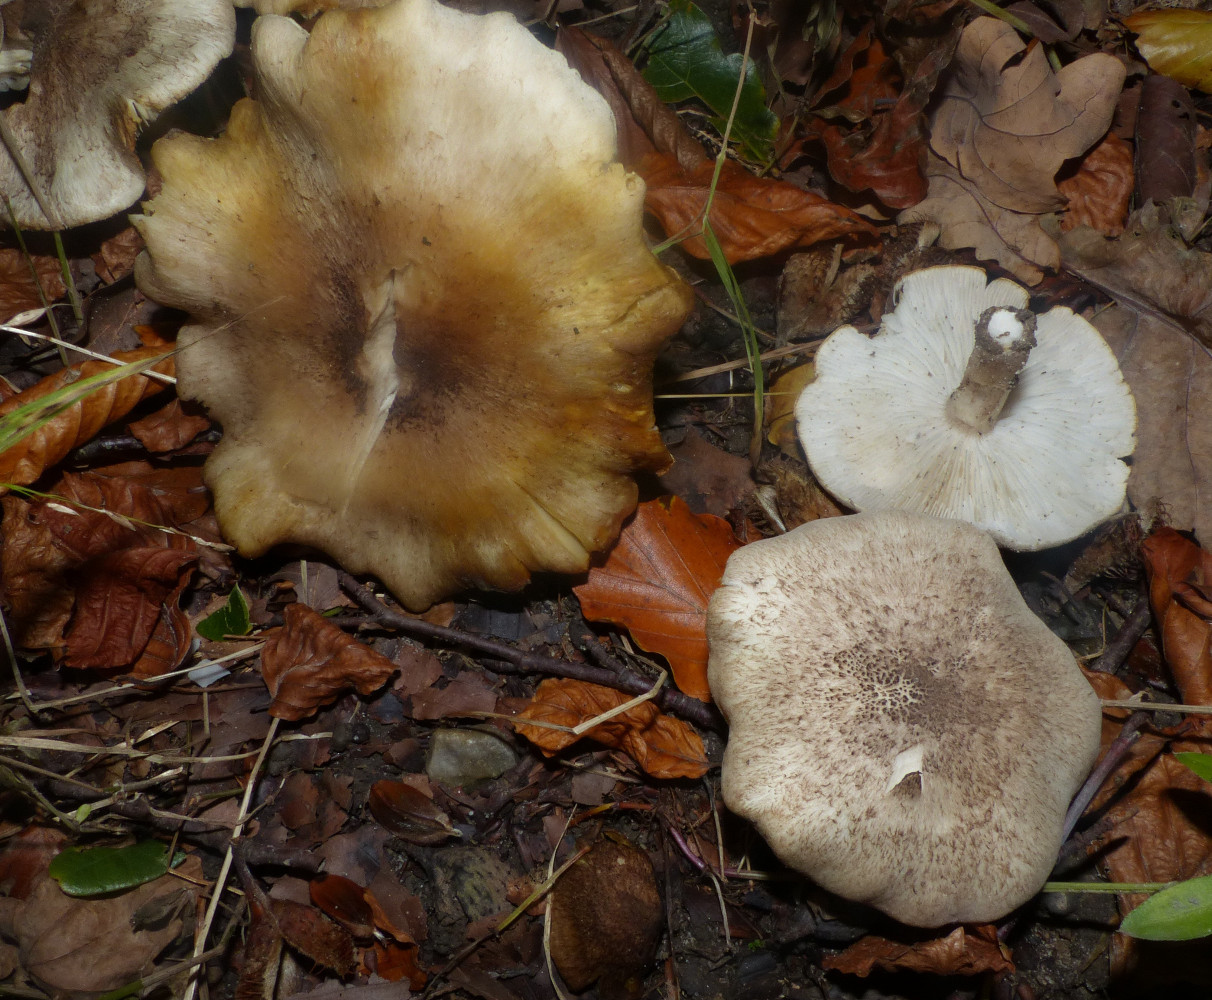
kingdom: Fungi
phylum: Basidiomycota
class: Agaricomycetes
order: Agaricales
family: Tricholomataceae
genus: Tricholoma
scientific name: Tricholoma scalpturatum
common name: gulplettet ridderhat
